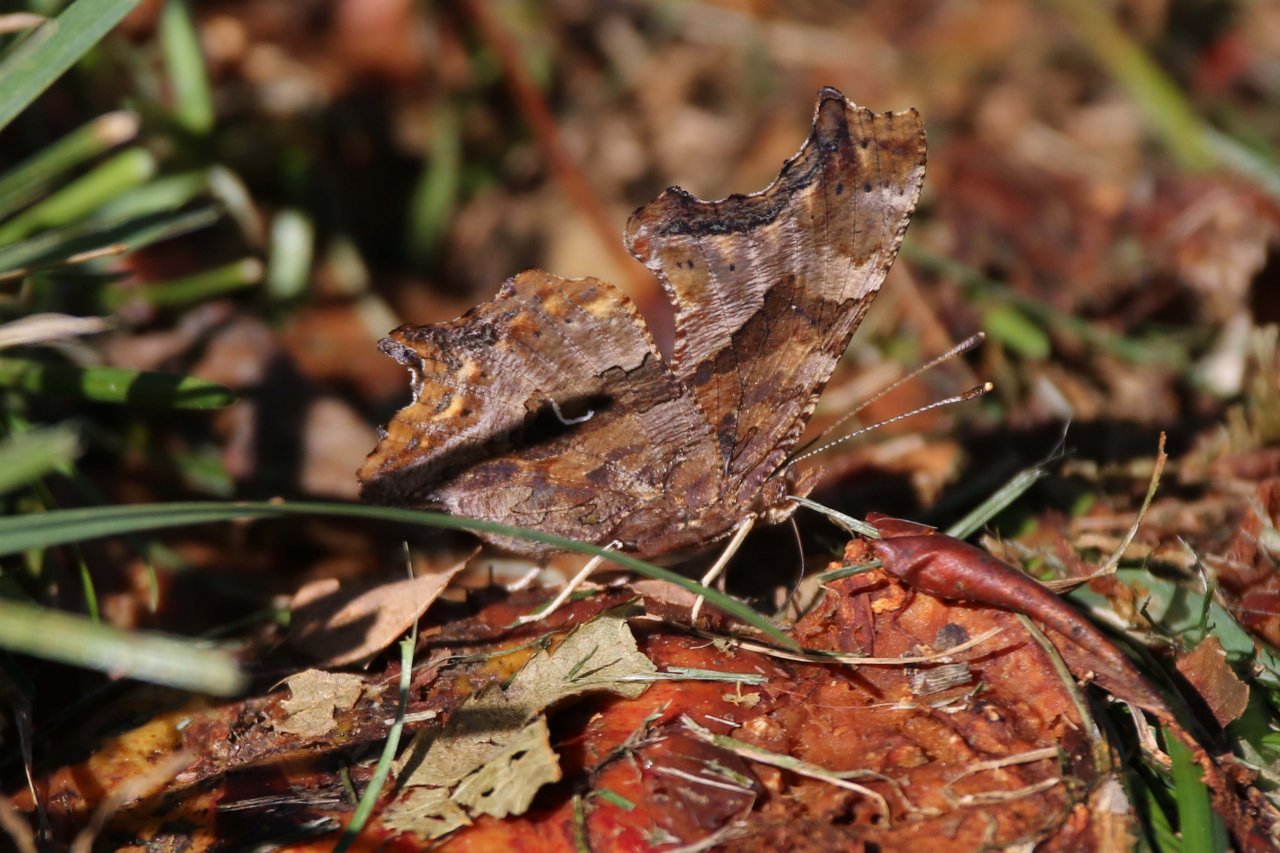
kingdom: Animalia
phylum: Arthropoda
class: Insecta
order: Lepidoptera
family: Nymphalidae
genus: Polygonia
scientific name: Polygonia comma
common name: Eastern Comma
